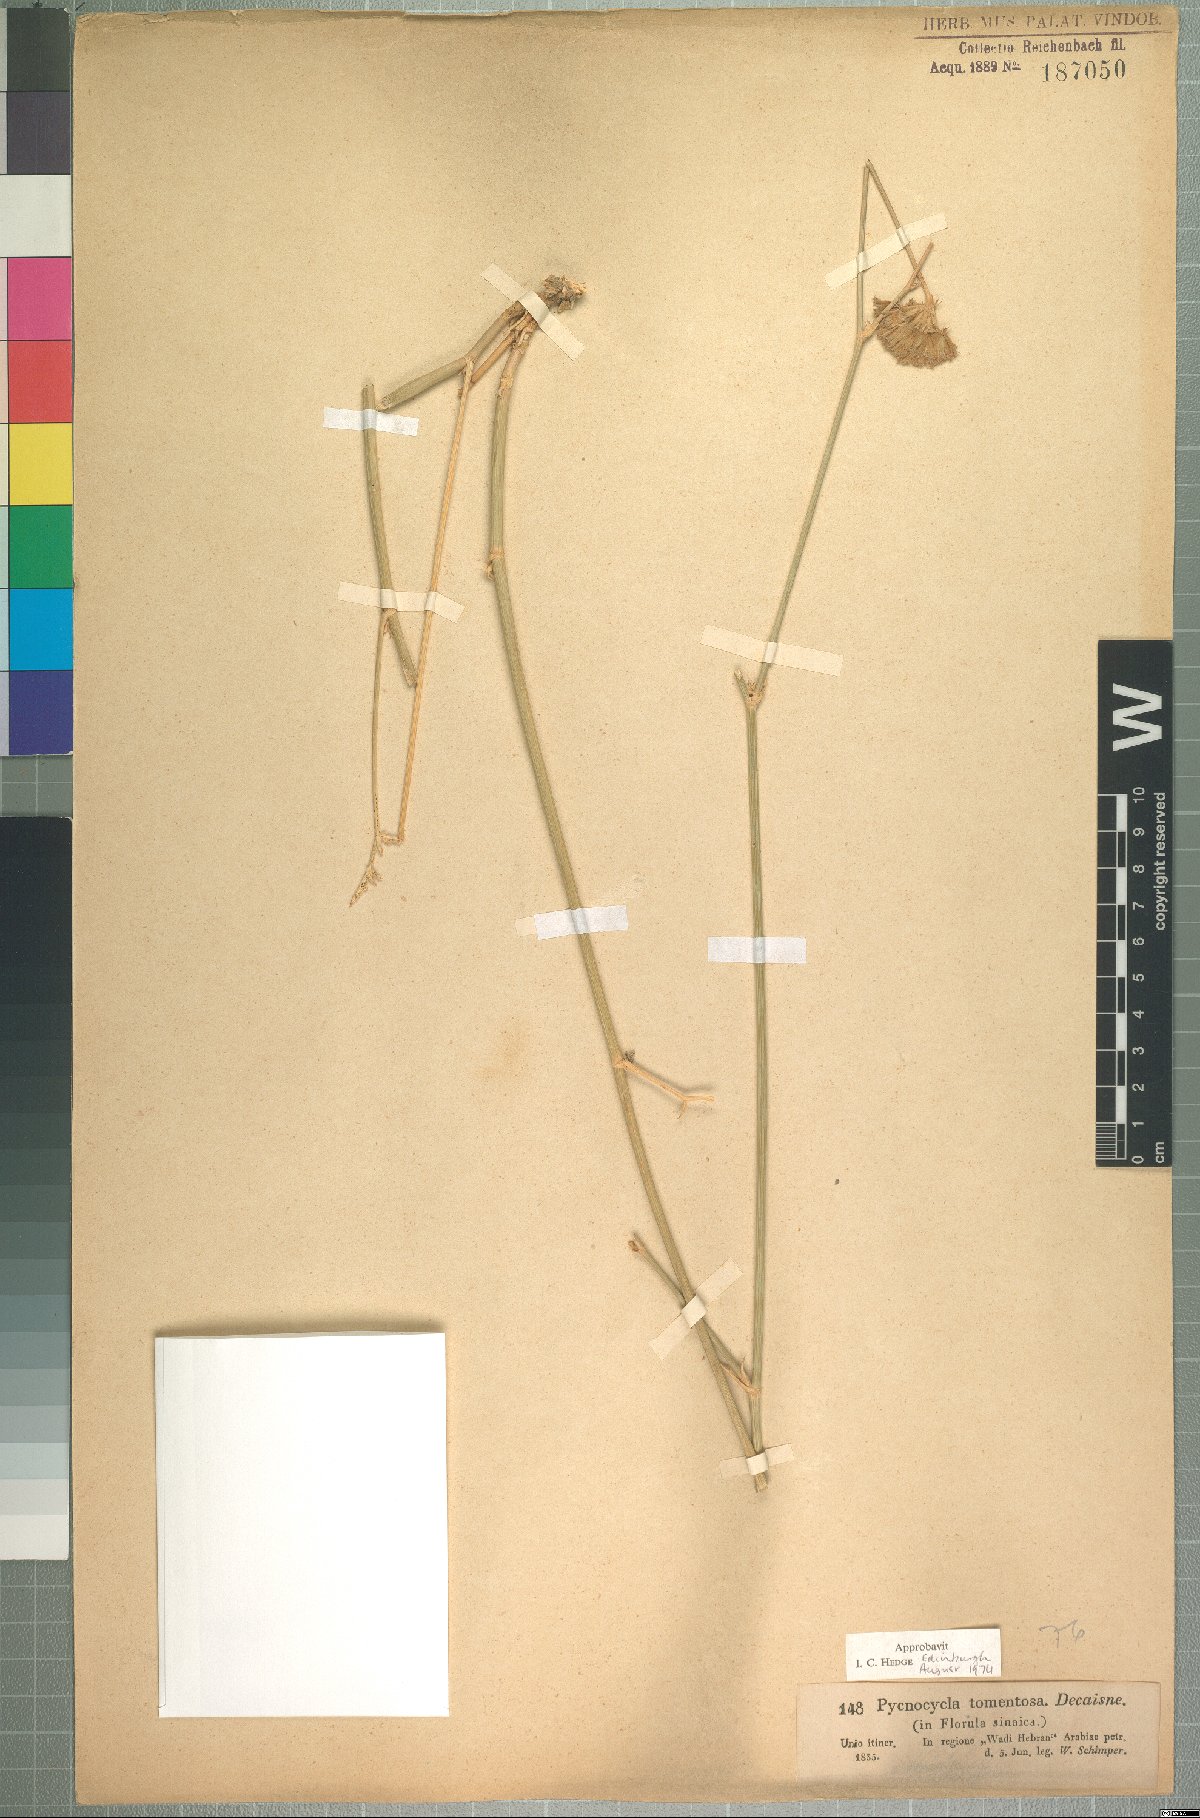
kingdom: Plantae
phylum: Tracheophyta
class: Magnoliopsida
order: Apiales
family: Apiaceae
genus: Pycnocycla
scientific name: Pycnocycla tomentosa
